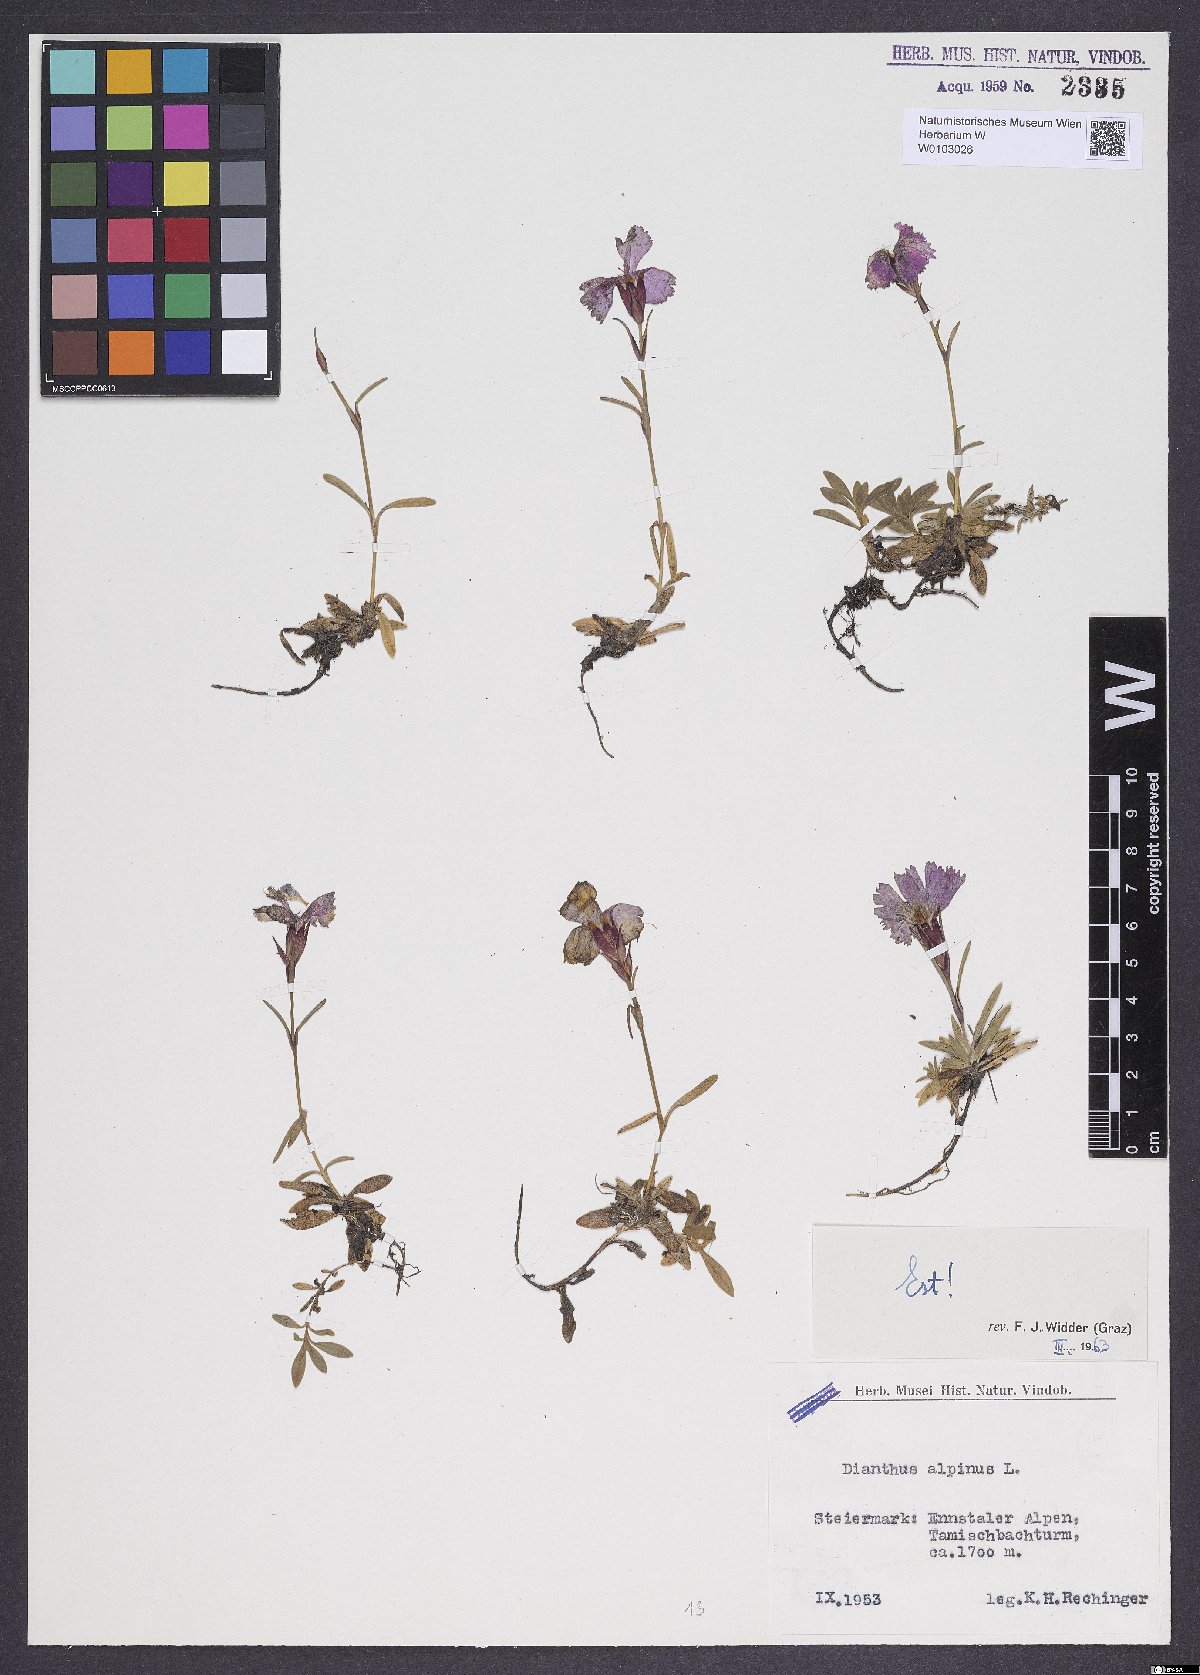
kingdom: Plantae
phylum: Tracheophyta
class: Magnoliopsida
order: Caryophyllales
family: Caryophyllaceae
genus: Dianthus
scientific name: Dianthus alpinus
